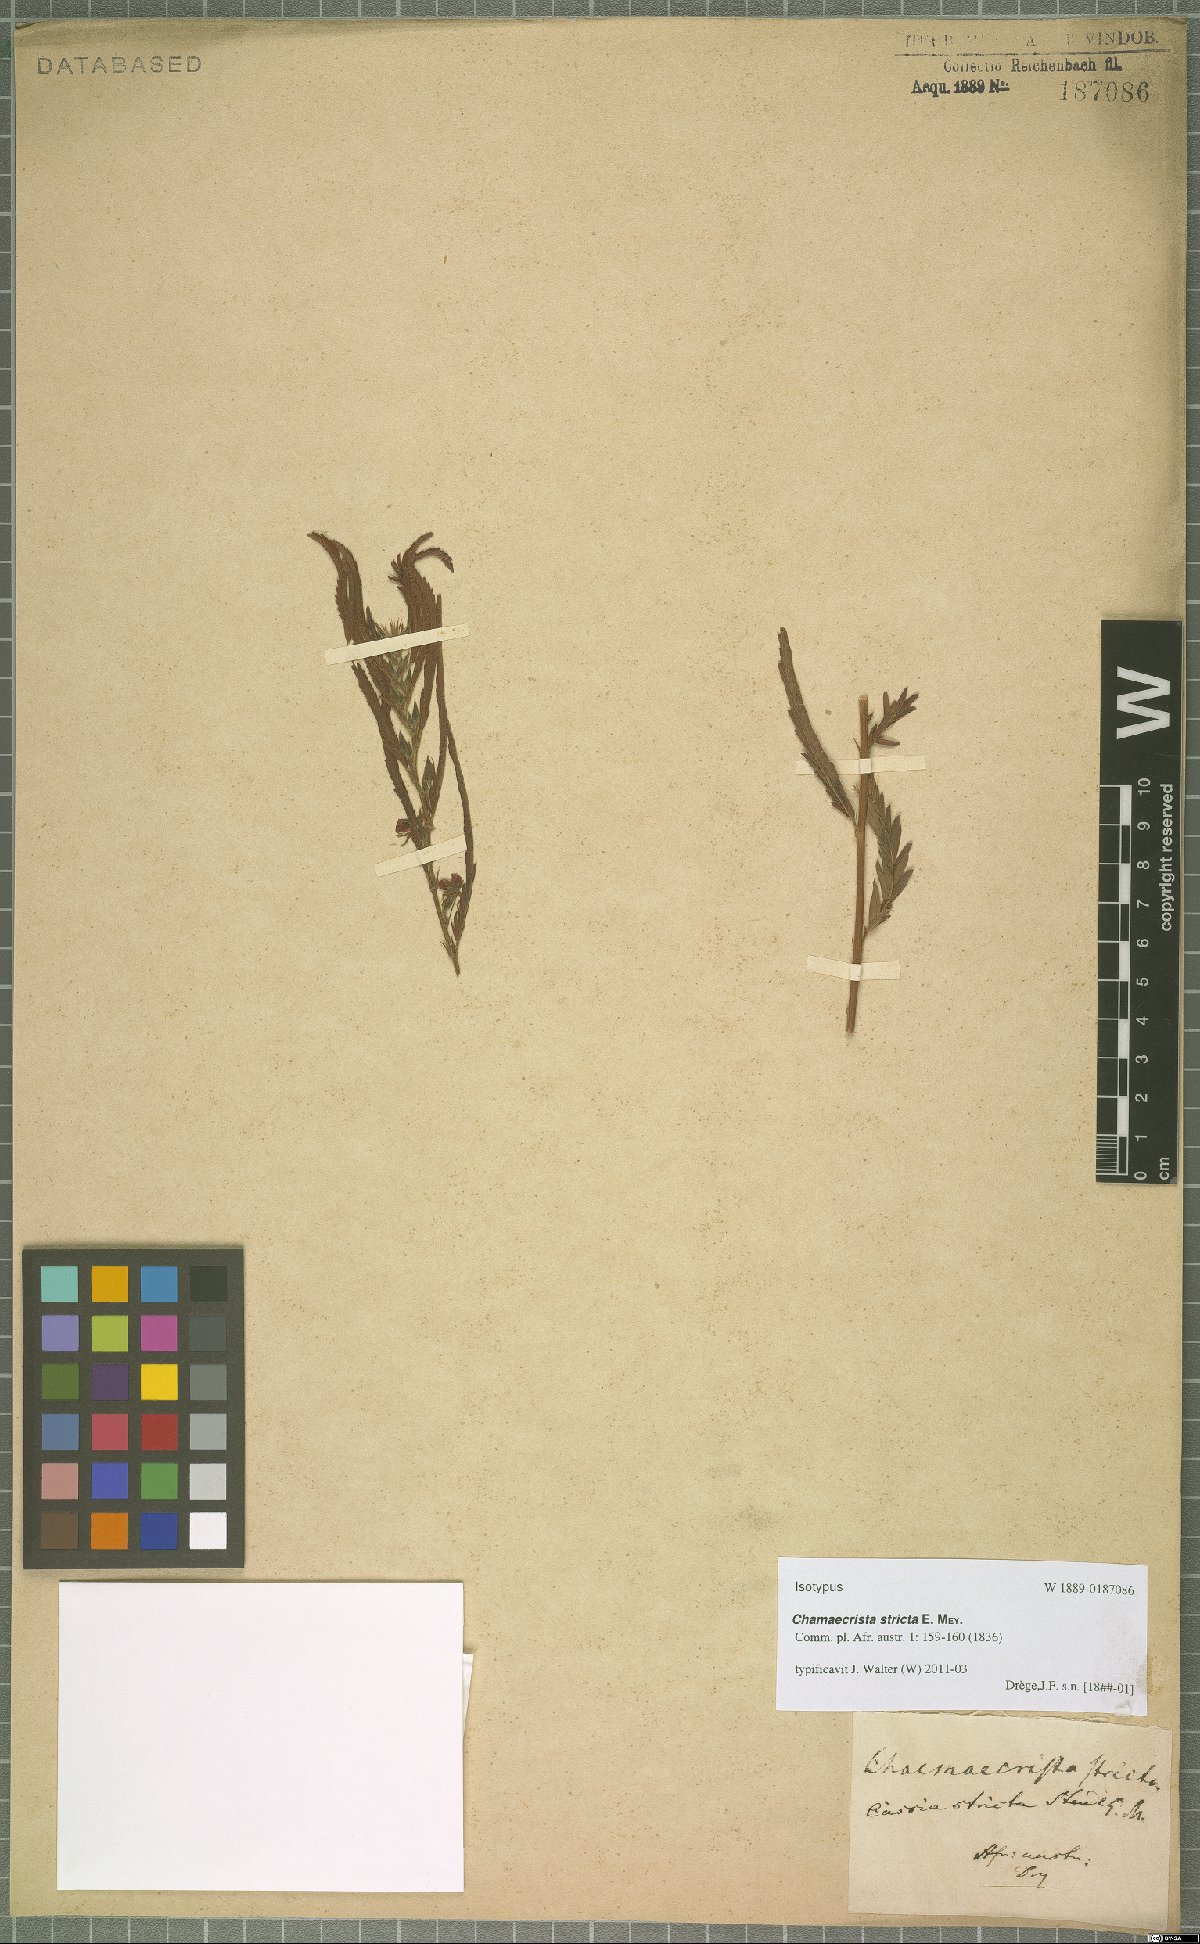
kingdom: Plantae
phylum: Tracheophyta
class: Magnoliopsida
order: Fabales
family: Fabaceae
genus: Chamaecrista
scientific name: Chamaecrista stricta
